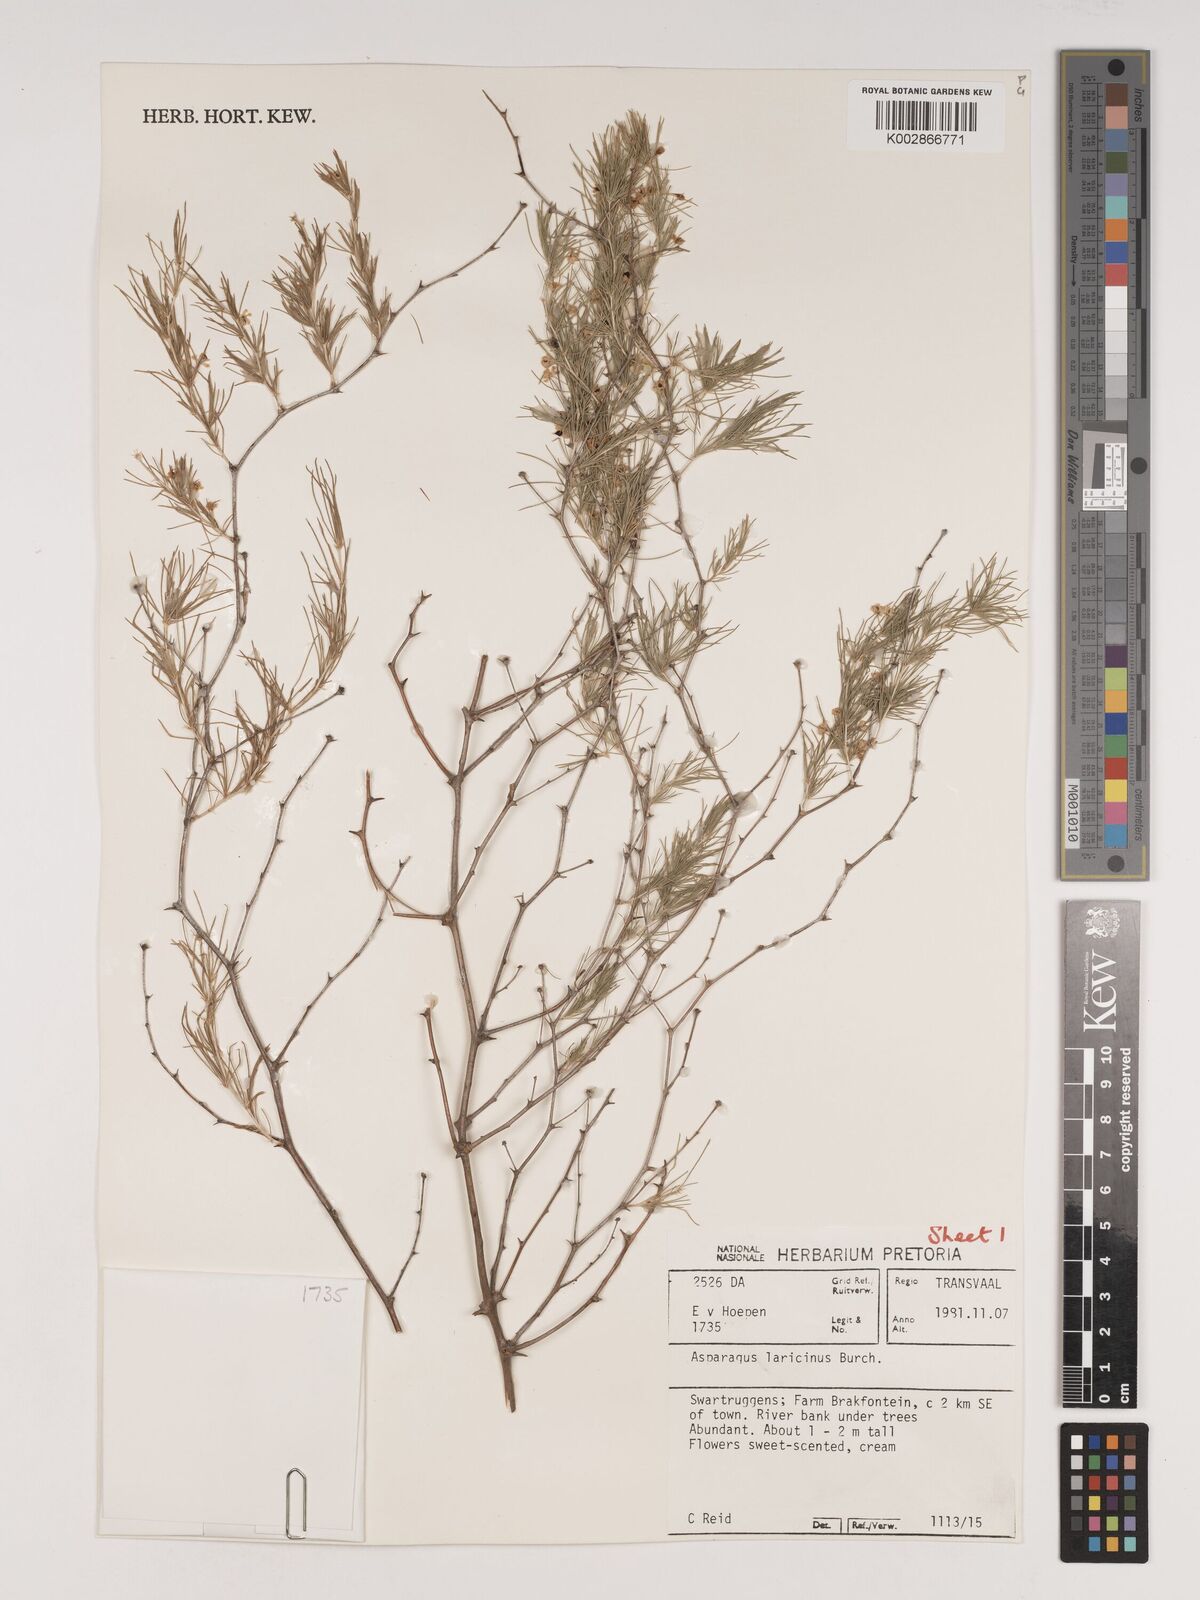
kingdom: Plantae
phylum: Tracheophyta
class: Liliopsida
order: Asparagales
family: Asparagaceae
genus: Asparagus
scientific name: Asparagus laricinus
